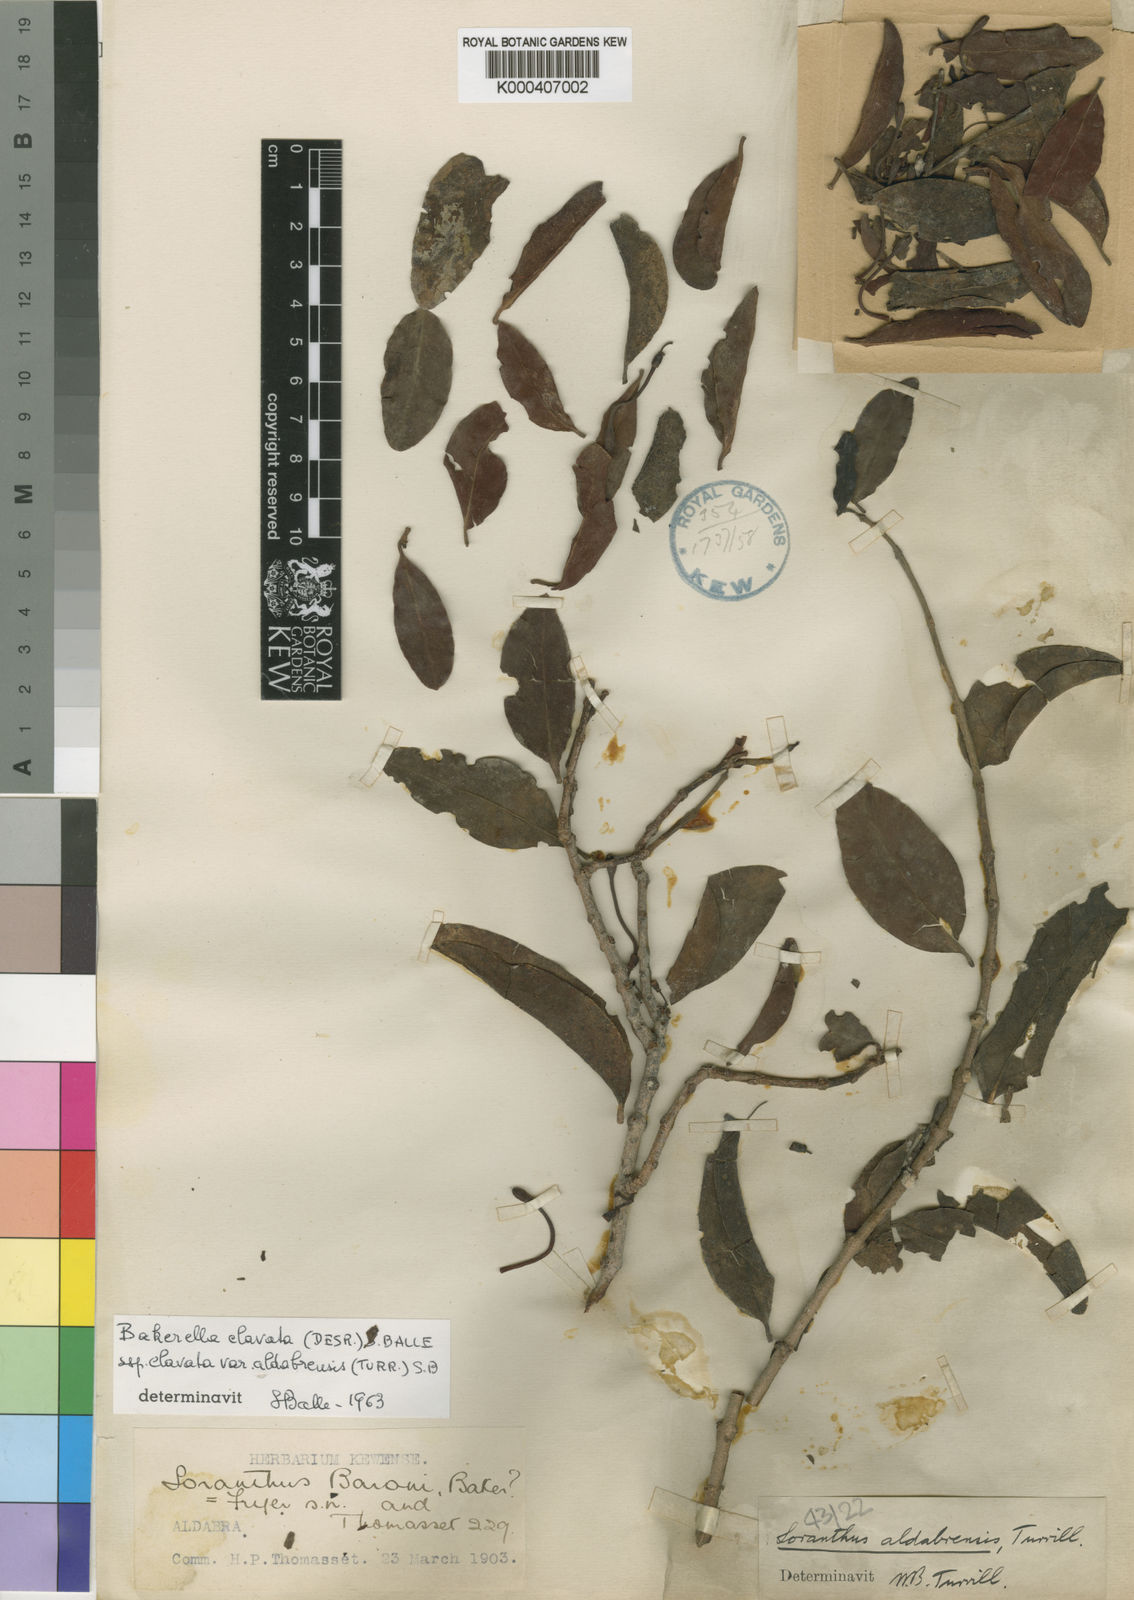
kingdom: Plantae
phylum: Tracheophyta
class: Magnoliopsida
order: Santalales
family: Loranthaceae
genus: Bakerella
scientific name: Bakerella clavata
